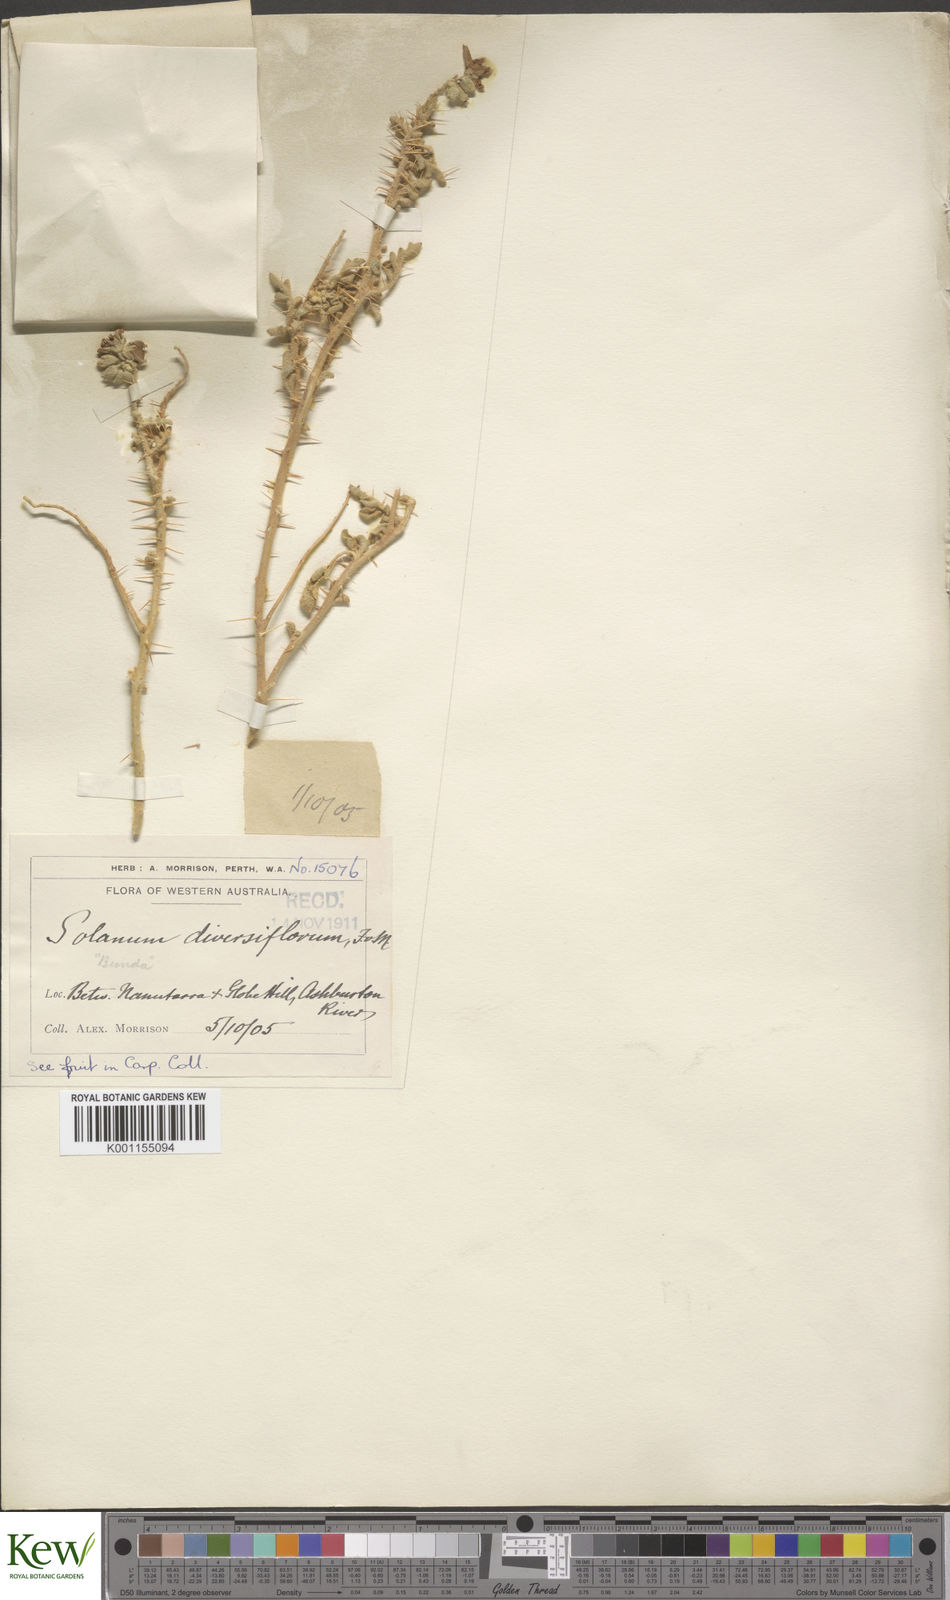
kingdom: Plantae
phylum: Tracheophyta
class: Magnoliopsida
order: Solanales
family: Solanaceae
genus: Solanum
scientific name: Solanum diversiflorum
